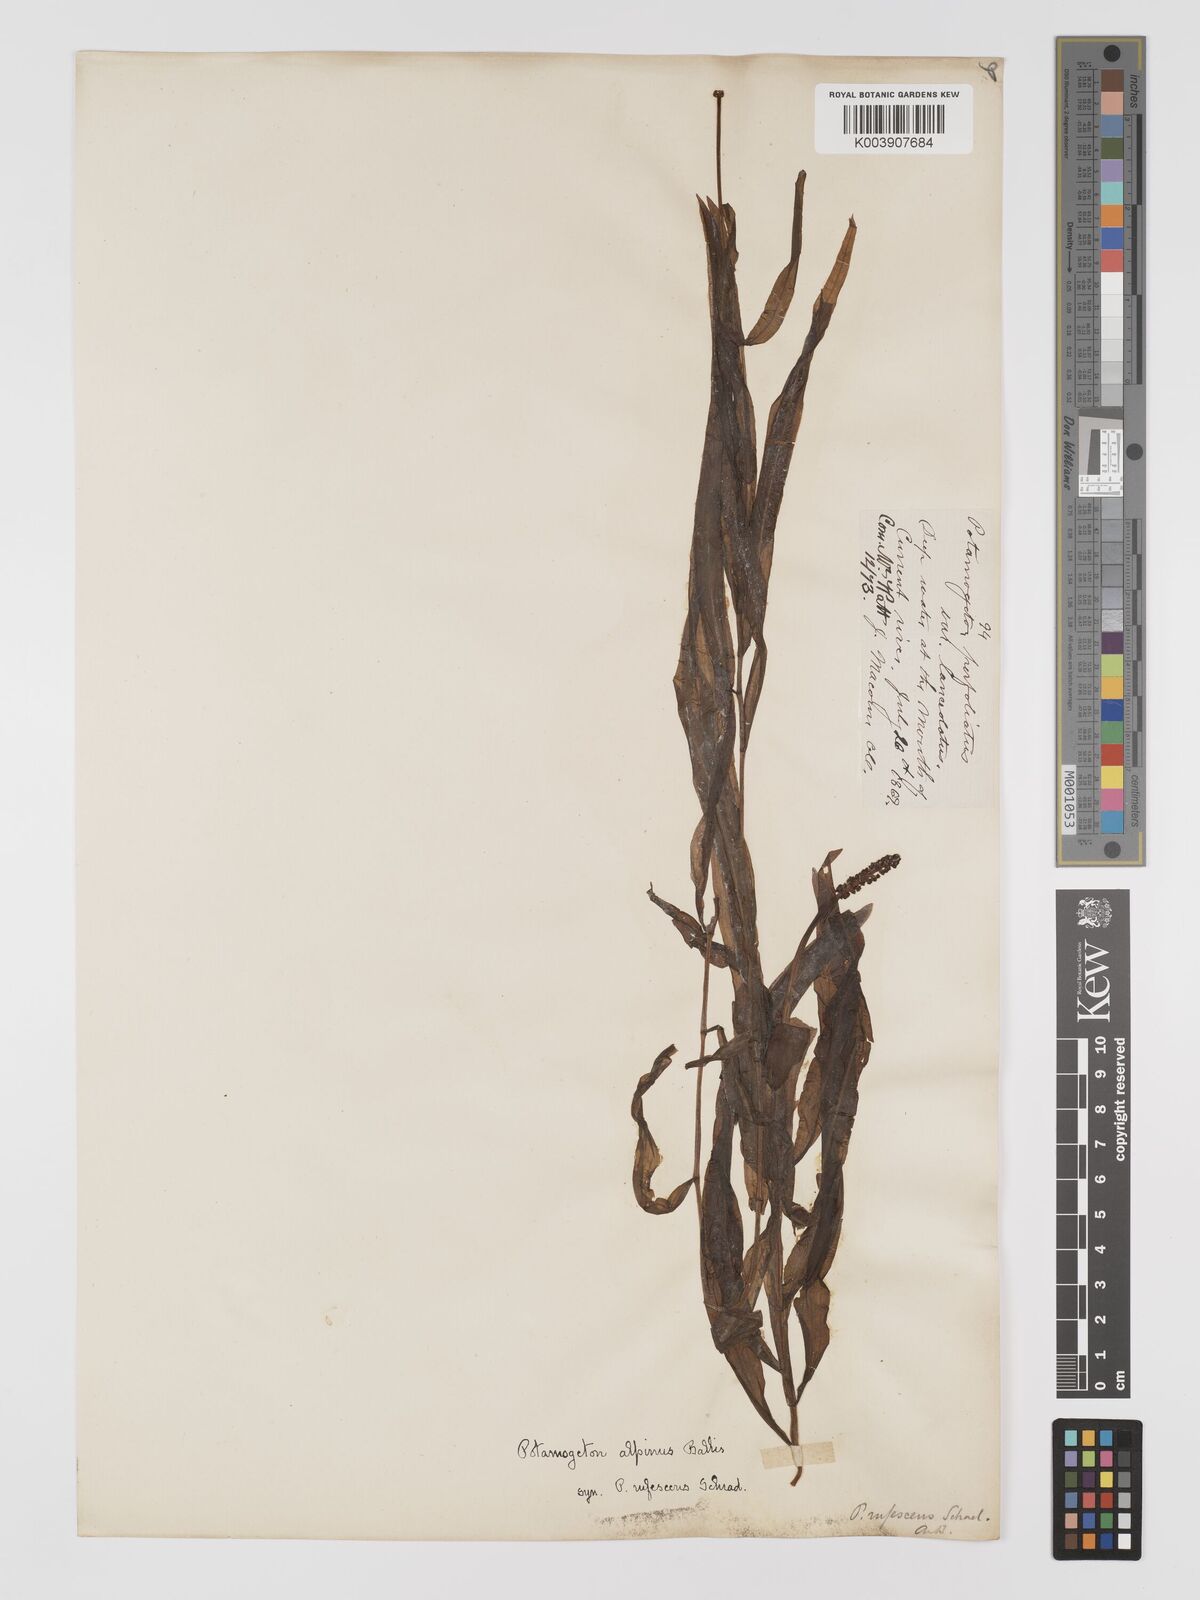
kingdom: Plantae
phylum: Tracheophyta
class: Liliopsida
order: Alismatales
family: Potamogetonaceae
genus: Potamogeton
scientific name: Potamogeton alpinus
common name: Red pondweed
